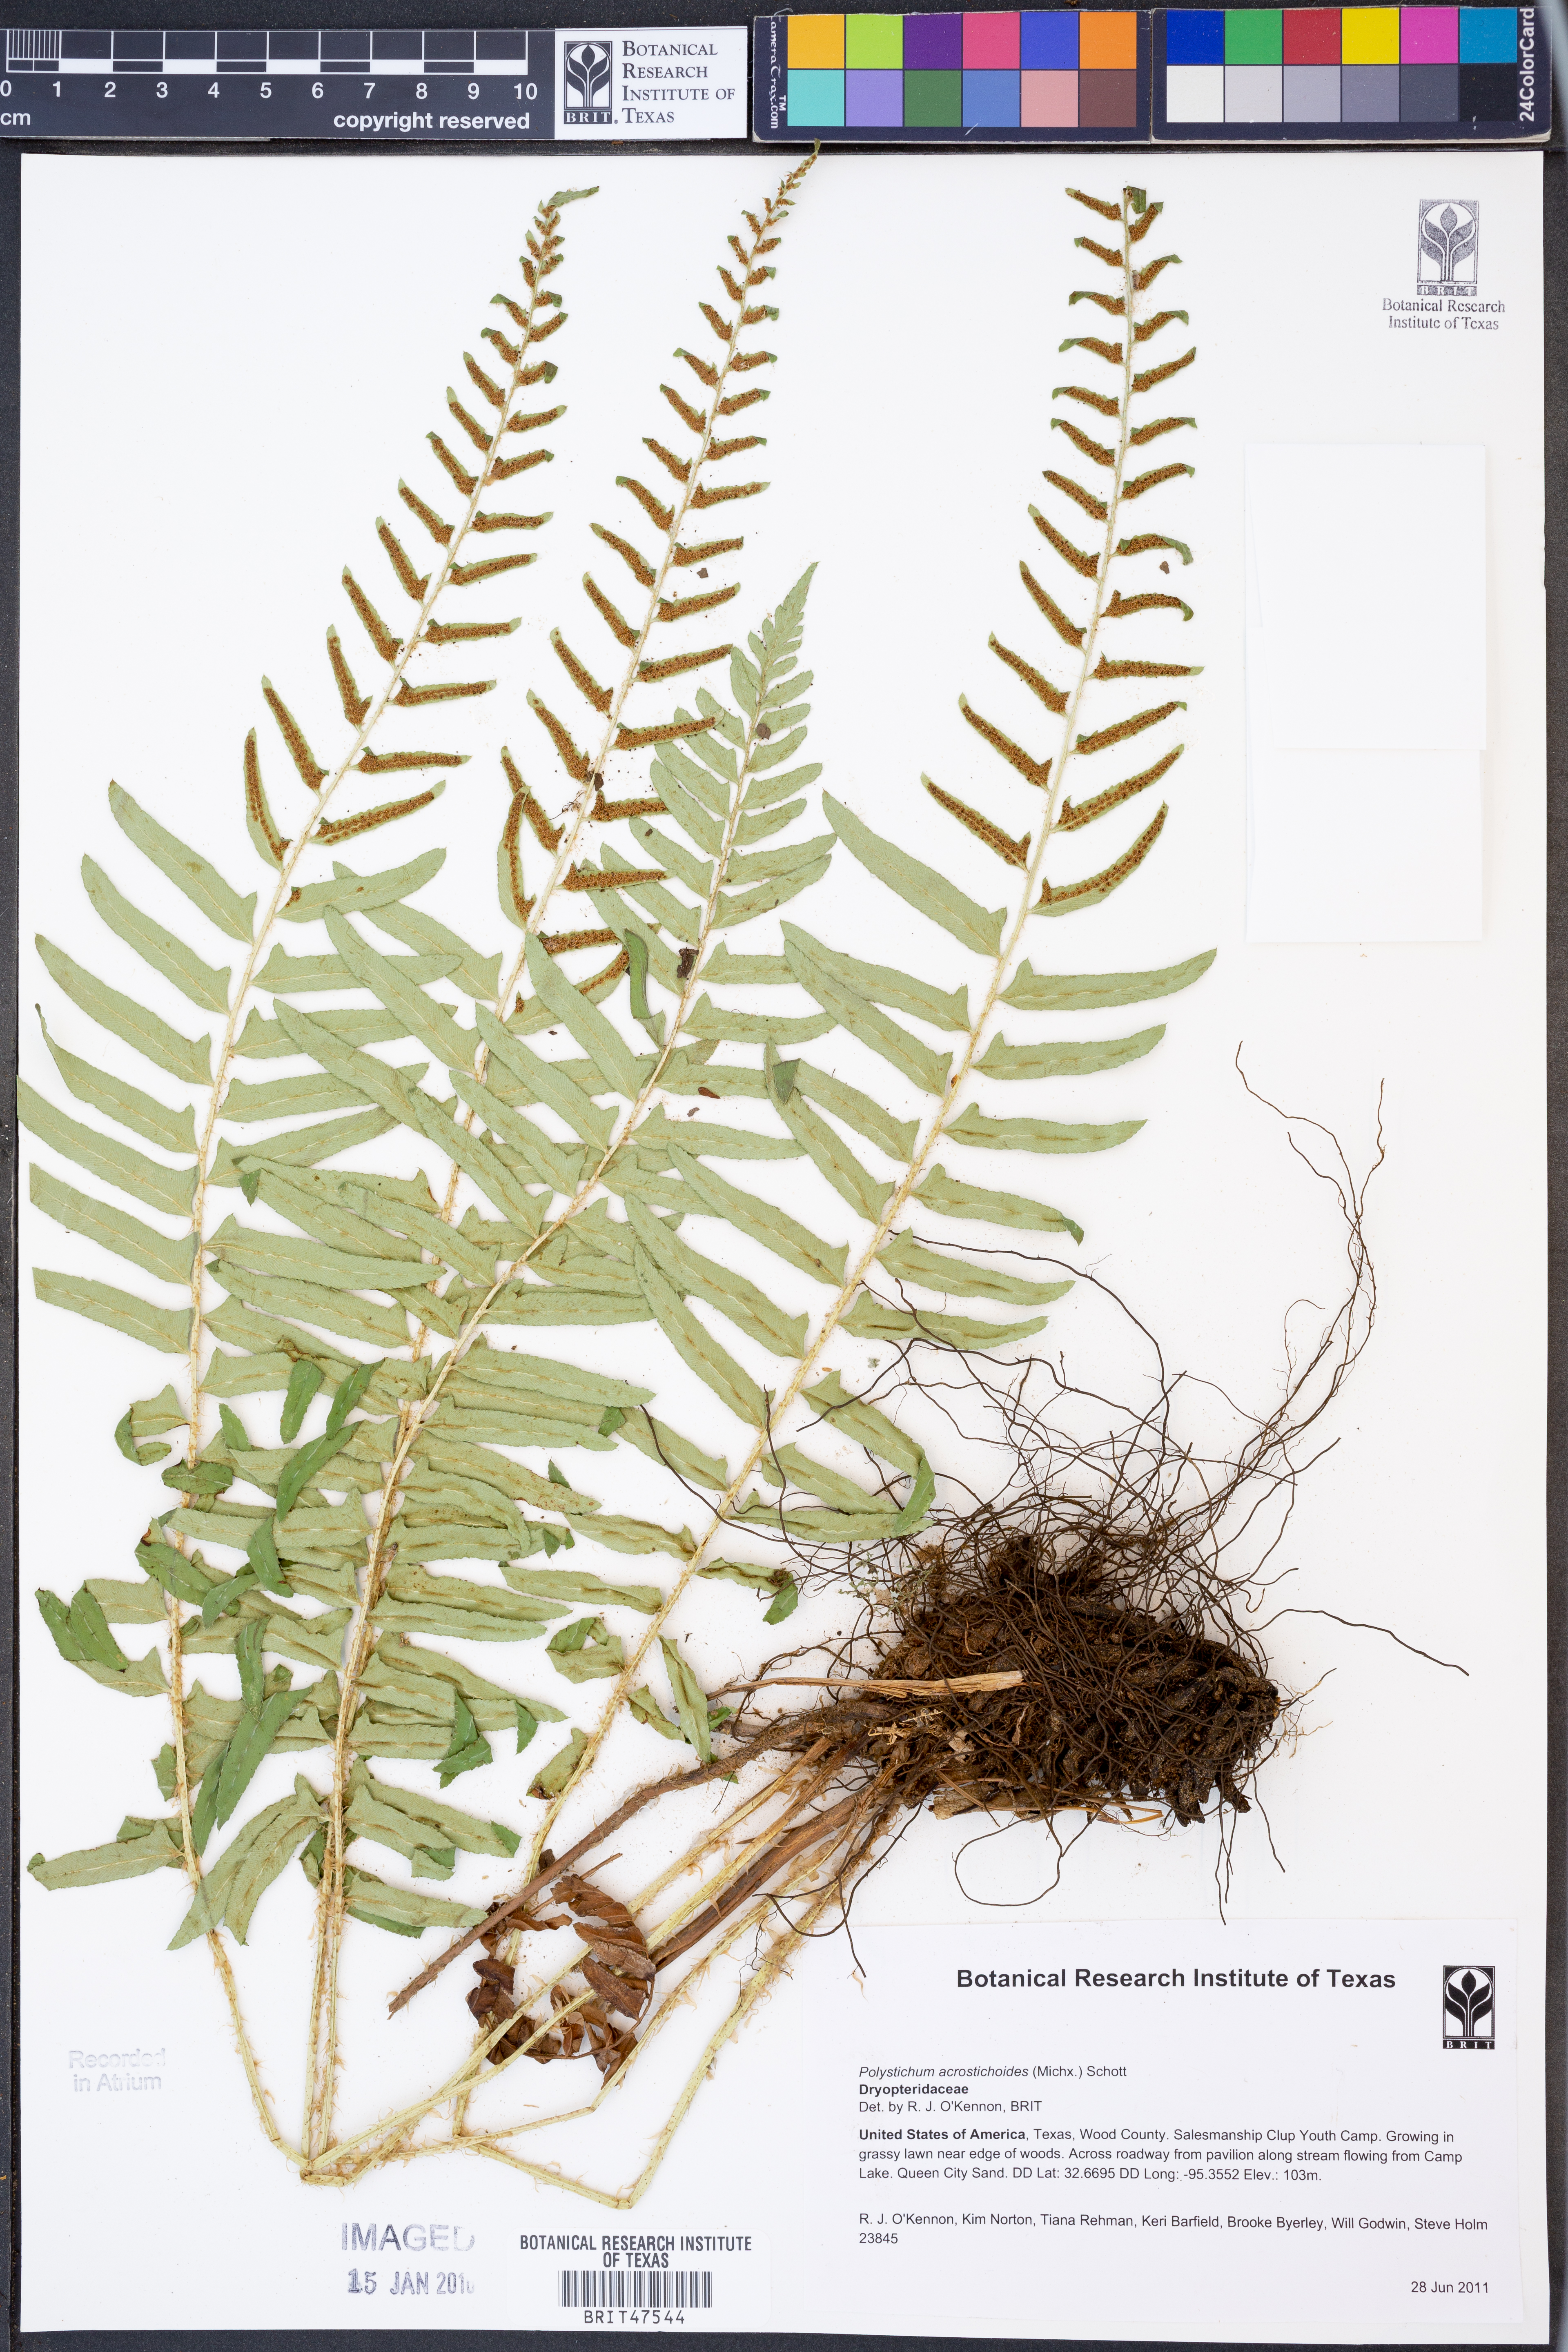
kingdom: Plantae
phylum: Tracheophyta
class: Polypodiopsida
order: Polypodiales
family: Dryopteridaceae
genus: Polystichum
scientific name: Polystichum acrostichoides
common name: Christmas fern
